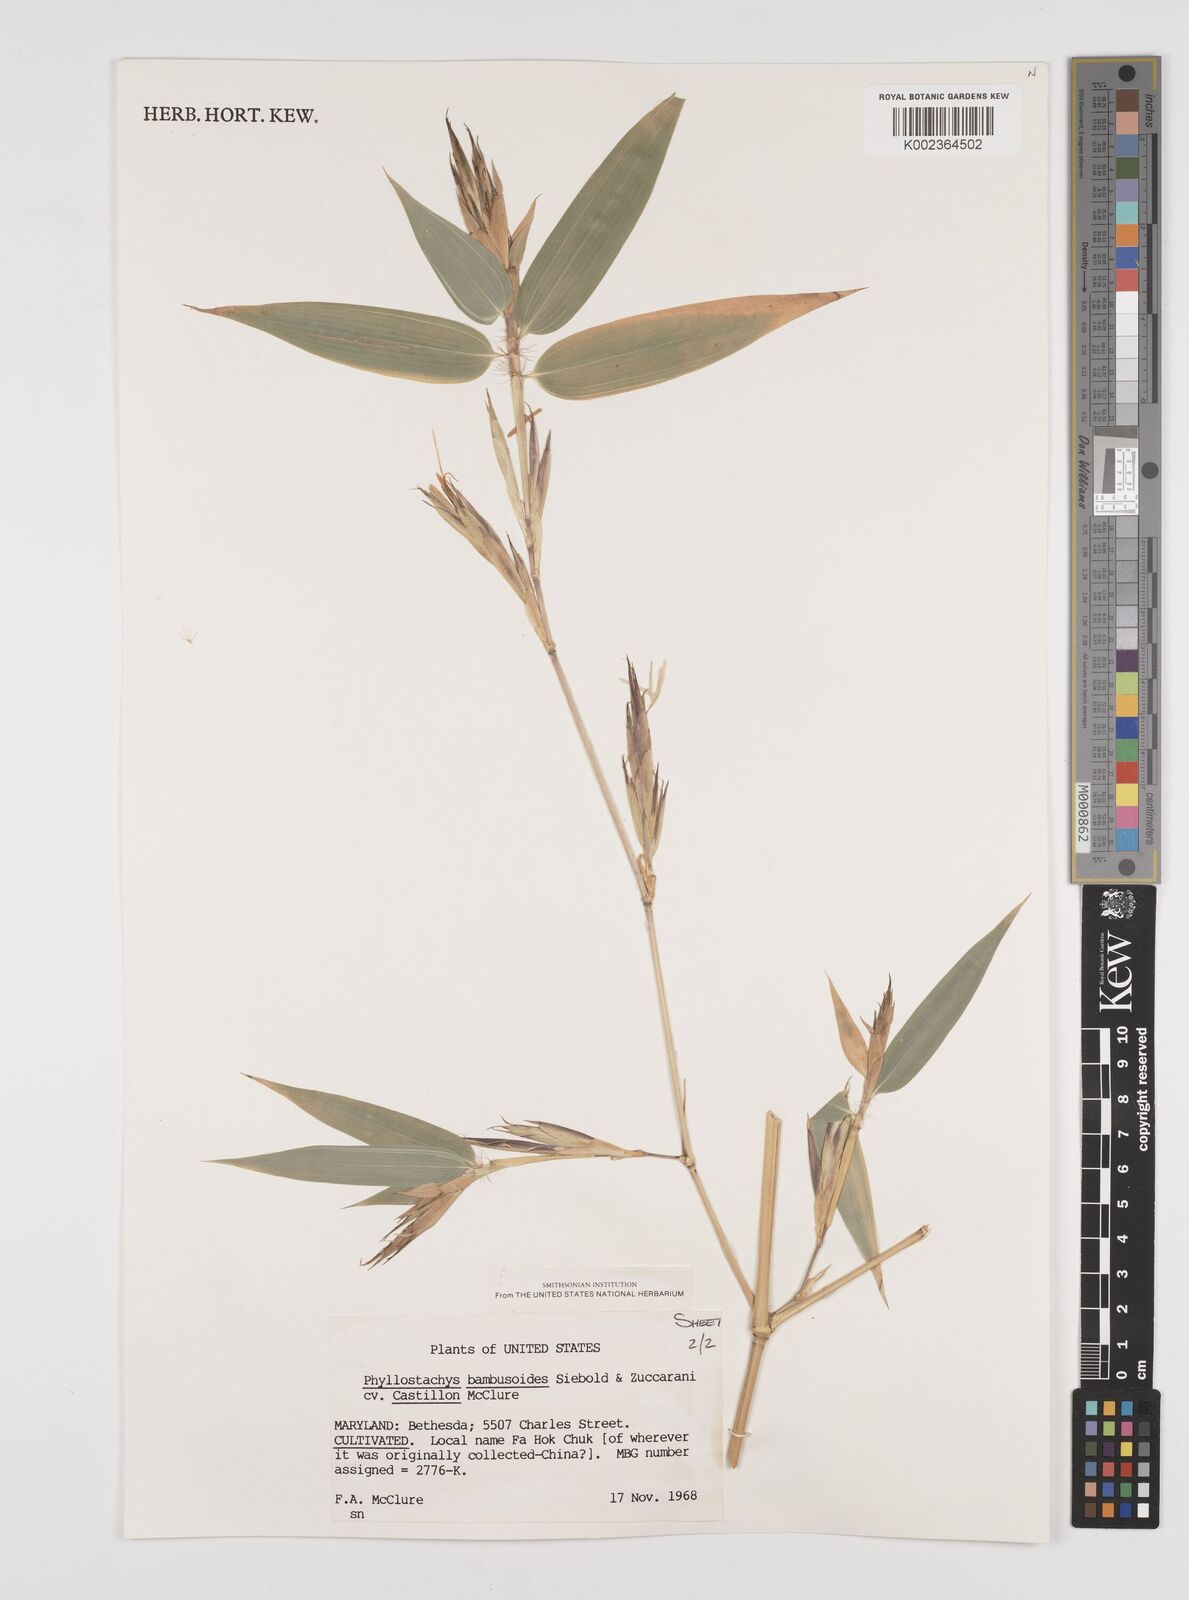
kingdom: Plantae
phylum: Tracheophyta
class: Liliopsida
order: Poales
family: Poaceae
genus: Phyllostachys
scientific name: Phyllostachys reticulata
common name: Bamboo
